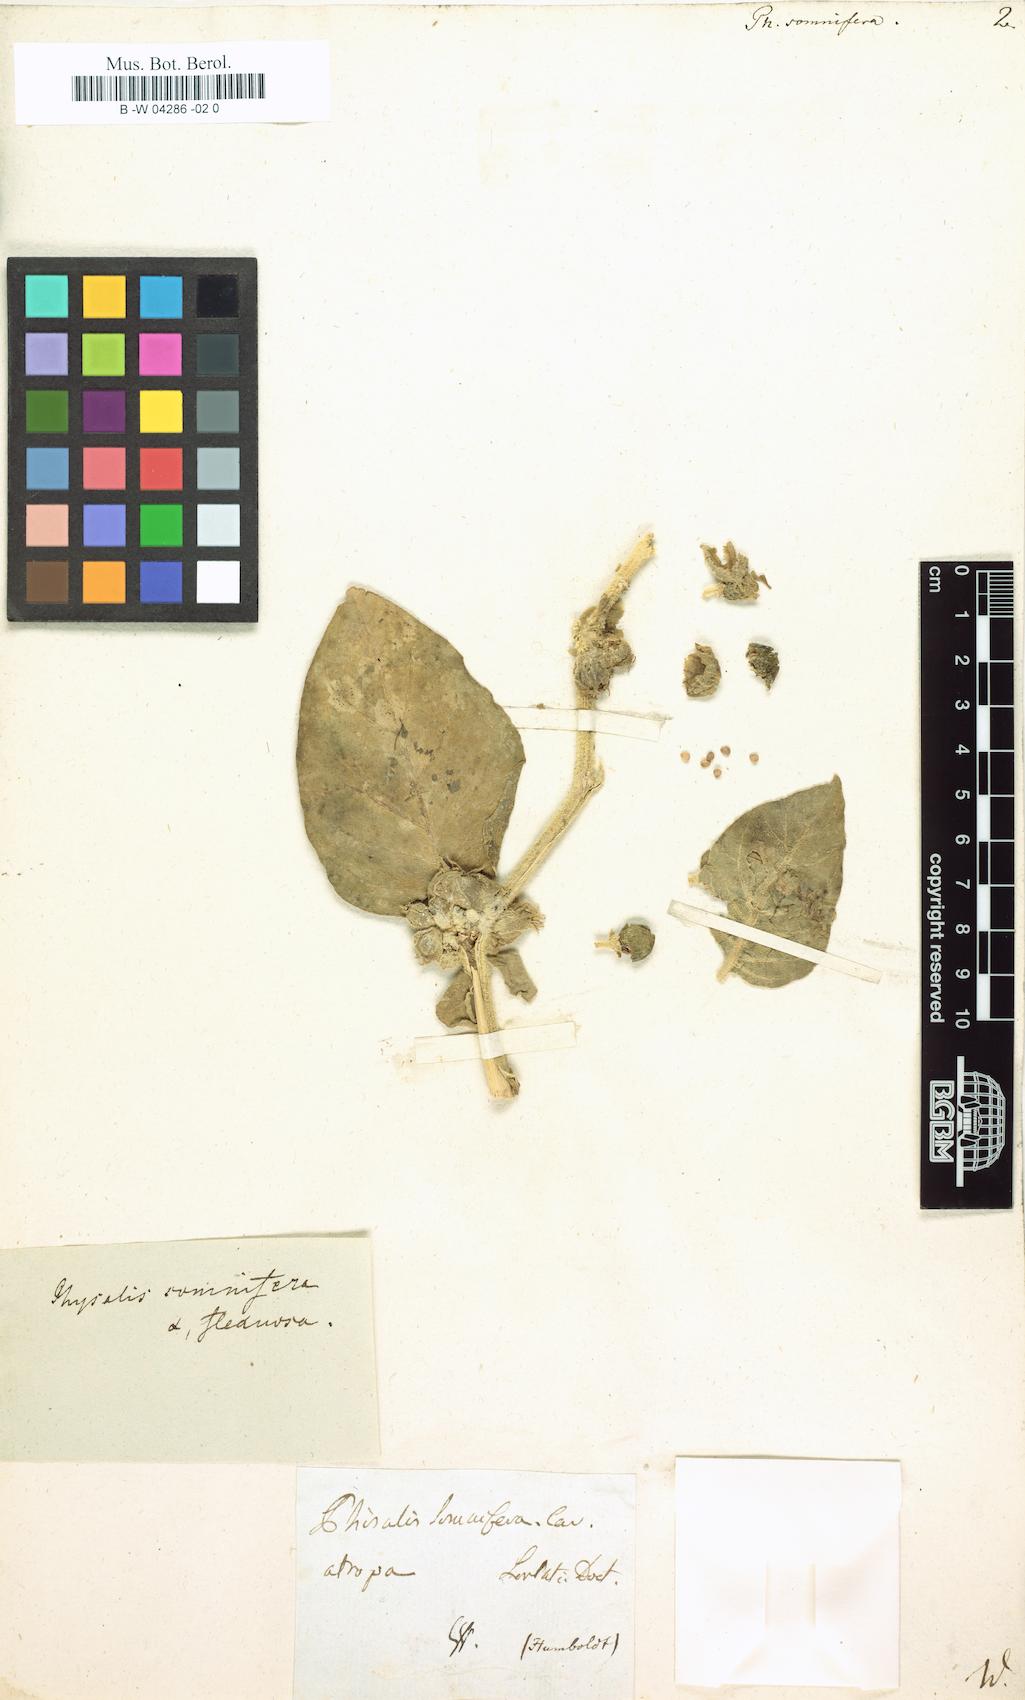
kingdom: Plantae
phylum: Tracheophyta
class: Magnoliopsida
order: Solanales
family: Solanaceae
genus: Withania
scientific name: Withania somnifera
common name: Winter-cherry
